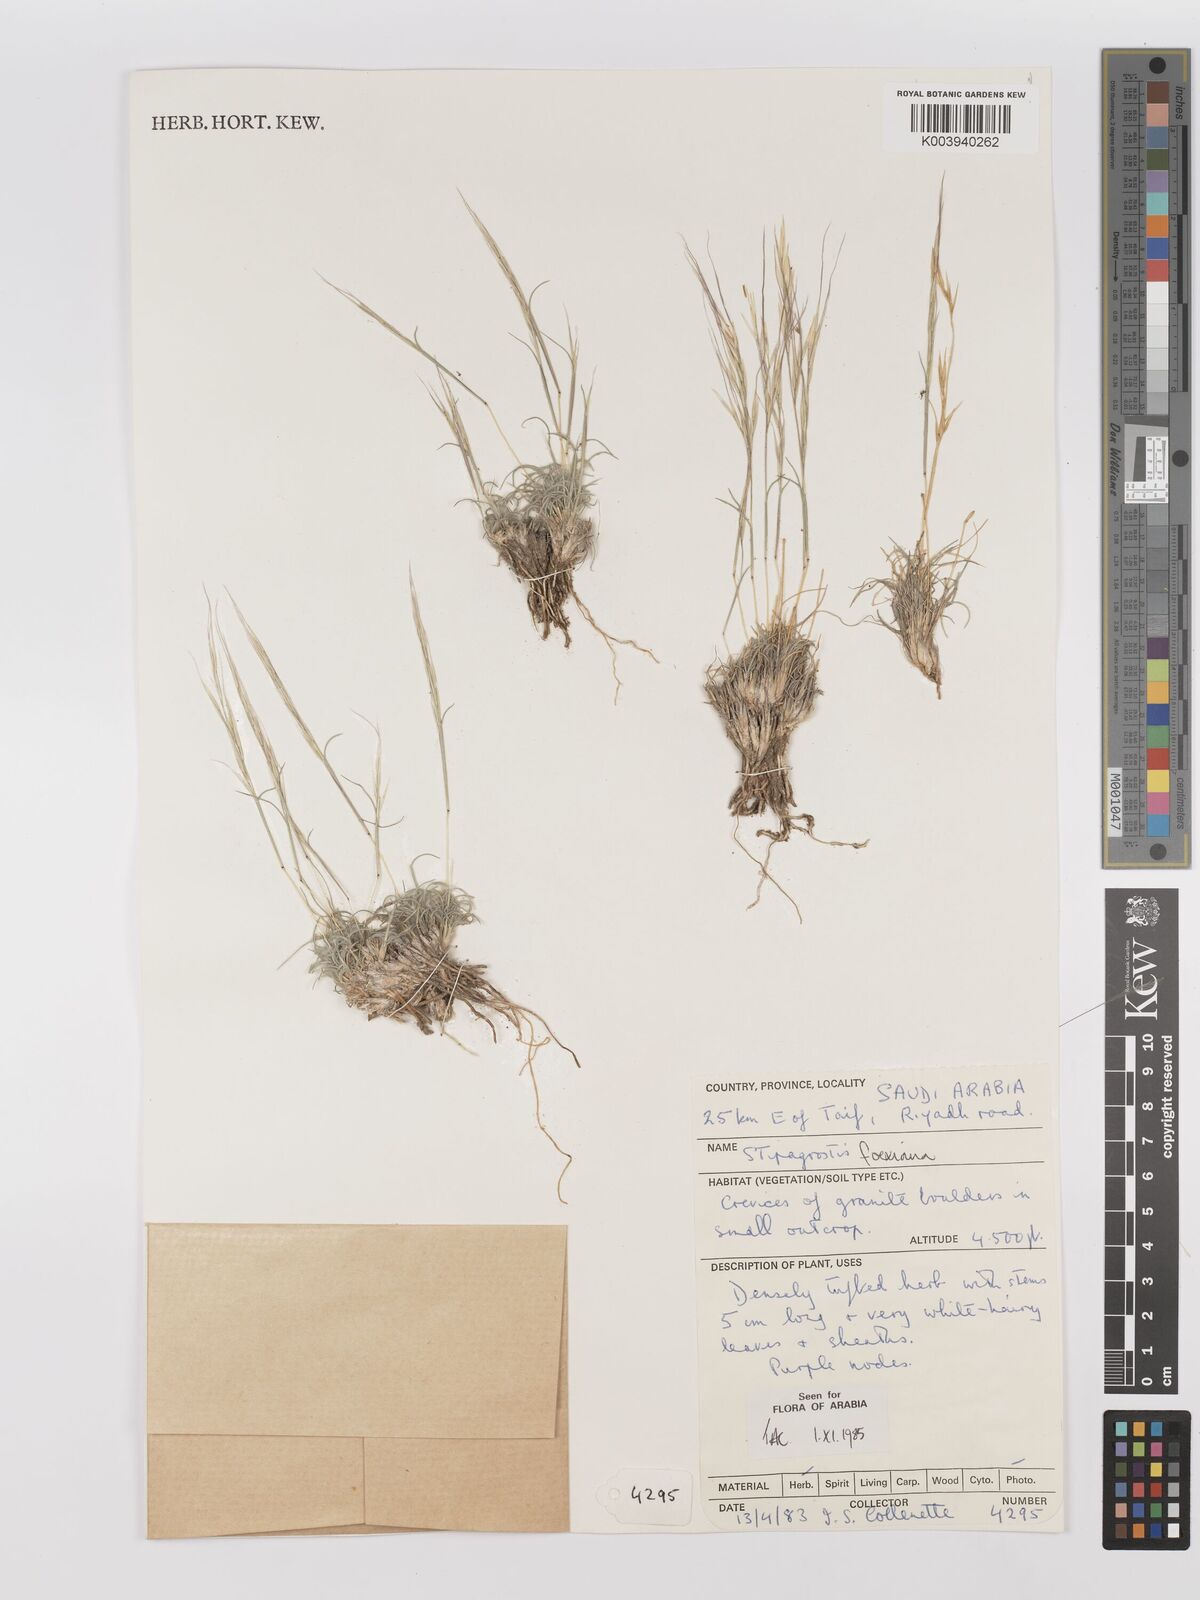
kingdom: Plantae
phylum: Tracheophyta
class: Liliopsida
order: Poales
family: Poaceae
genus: Stipagrostis
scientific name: Stipagrostis foexiana
